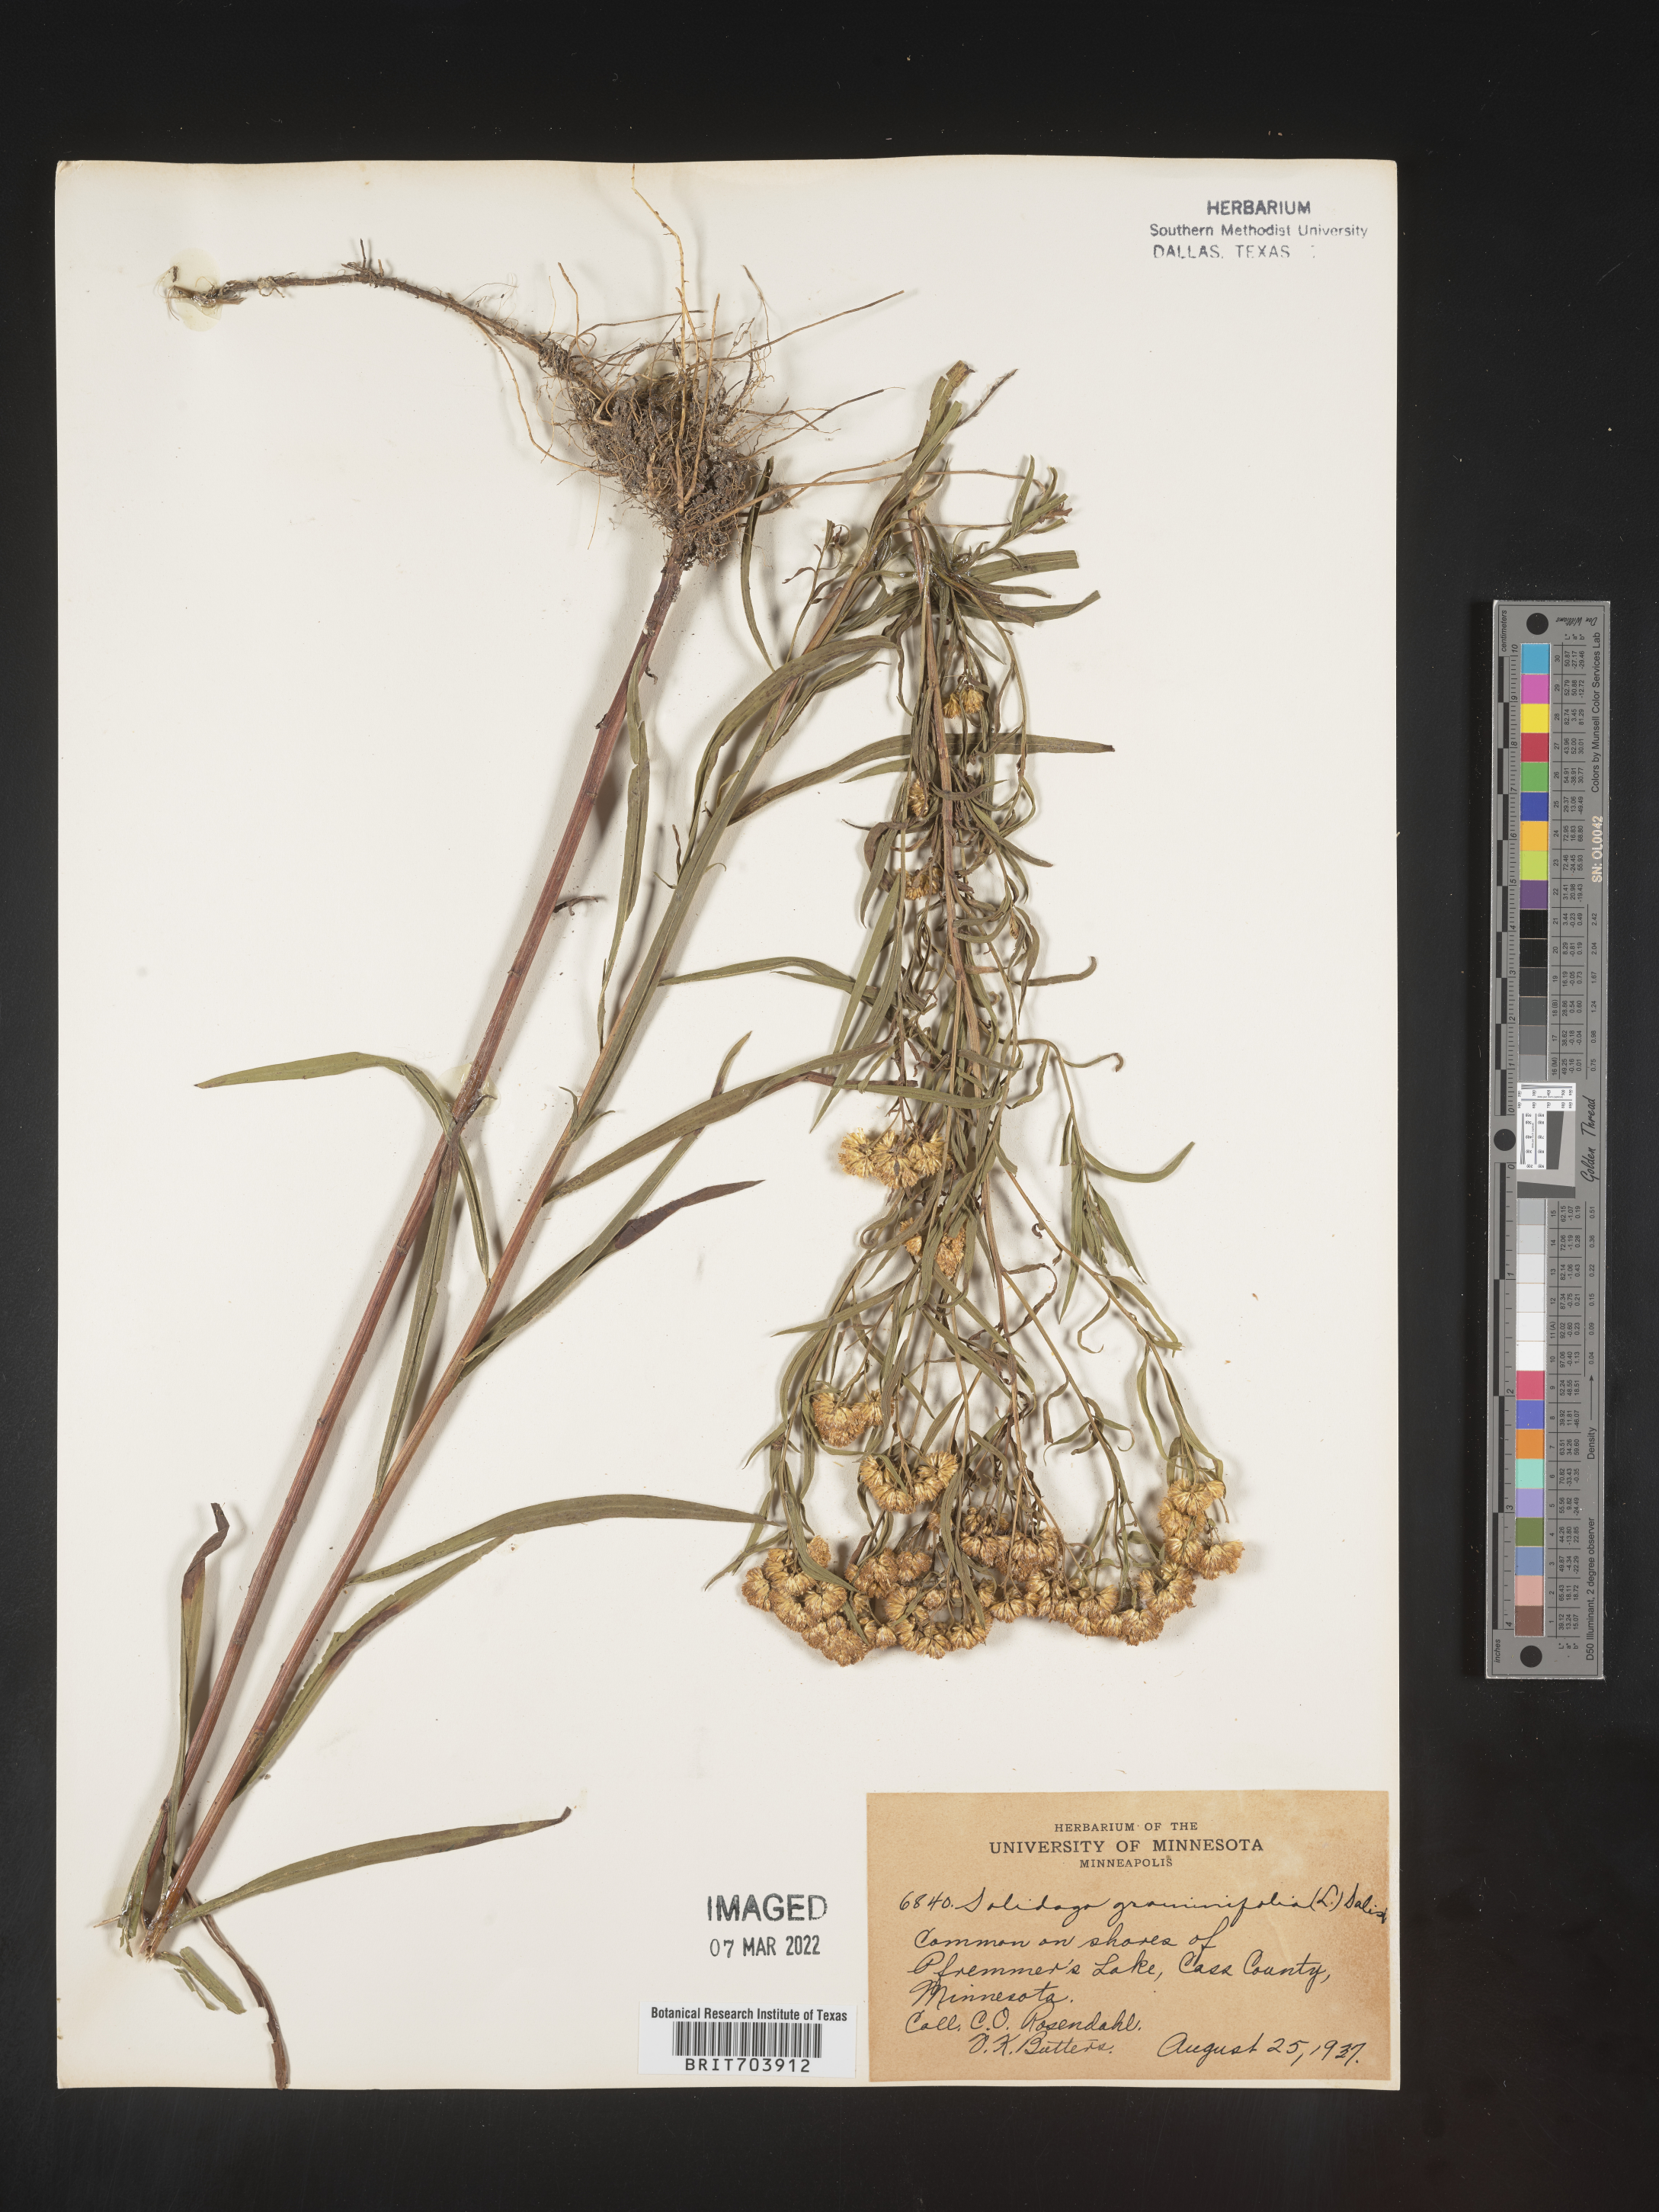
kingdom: Plantae
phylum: Tracheophyta
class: Magnoliopsida
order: Asterales
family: Asteraceae
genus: Euthamia
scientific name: Euthamia graminifolia
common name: Common goldentop
